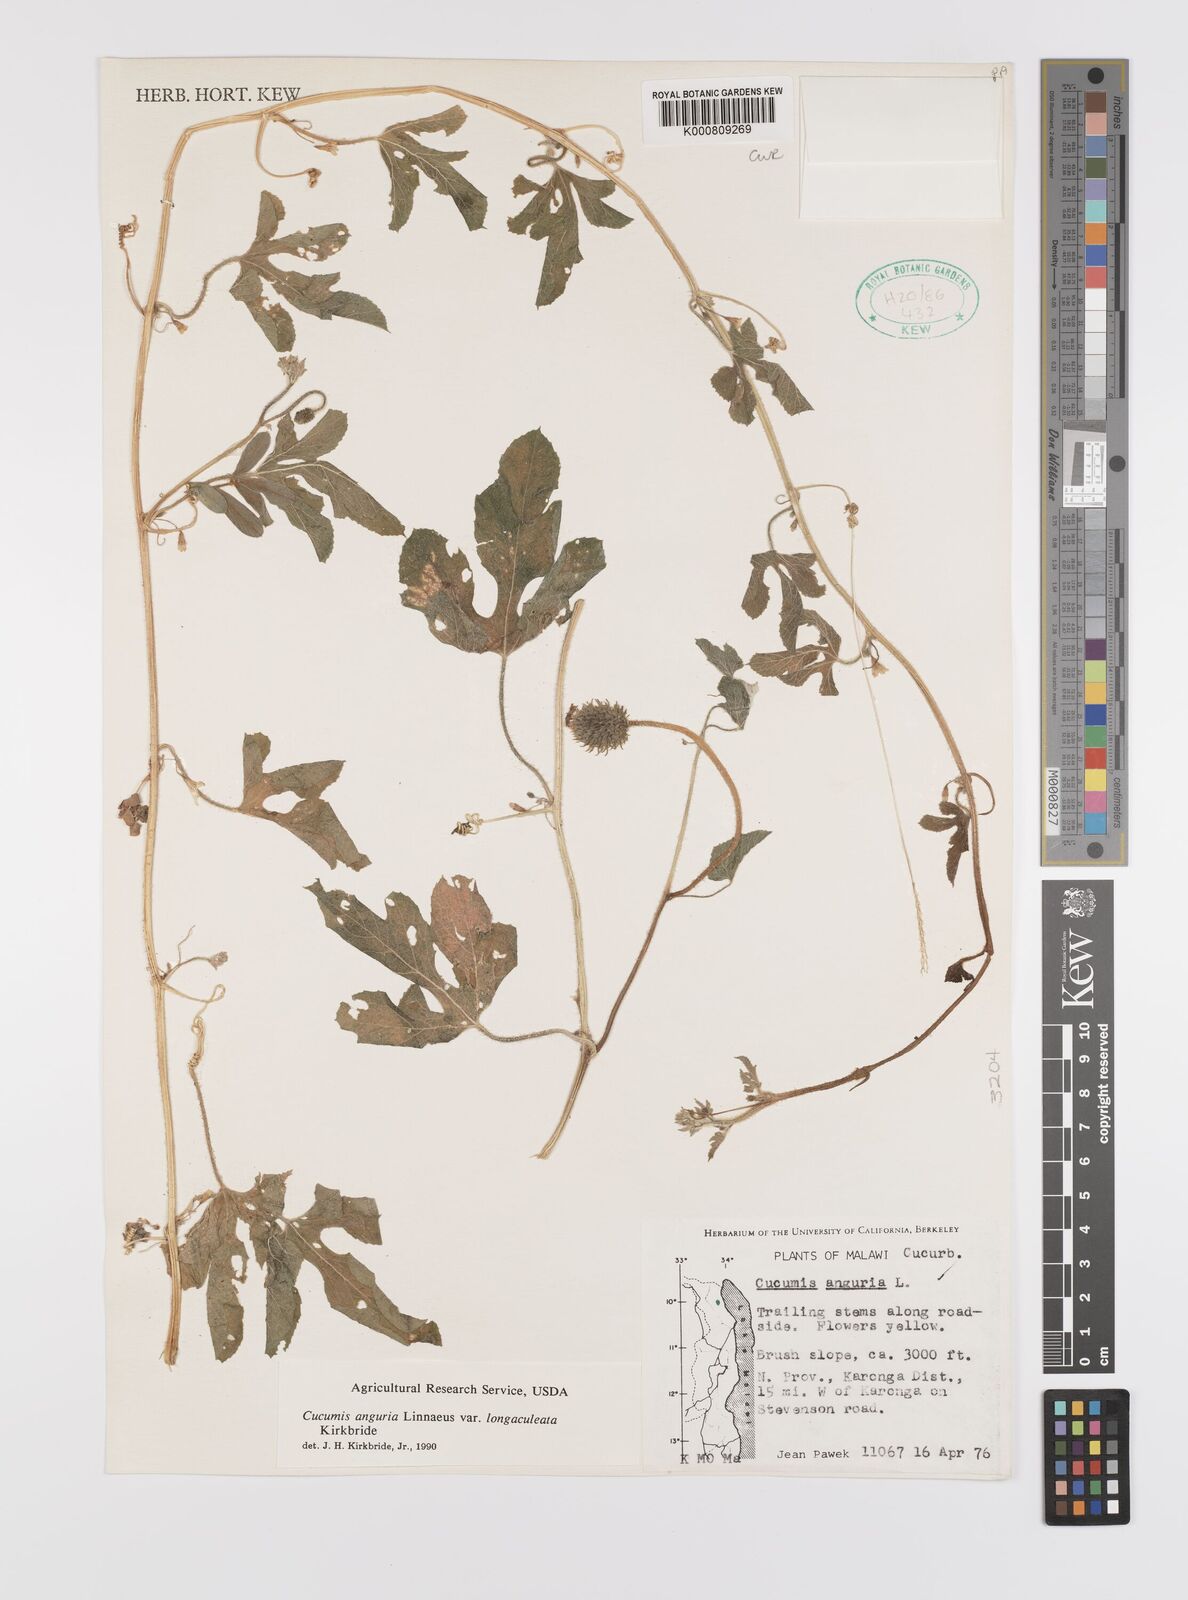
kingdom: Plantae
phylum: Tracheophyta
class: Magnoliopsida
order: Cucurbitales
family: Cucurbitaceae
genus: Cucumis
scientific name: Cucumis anguria
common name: West indian gherkin
